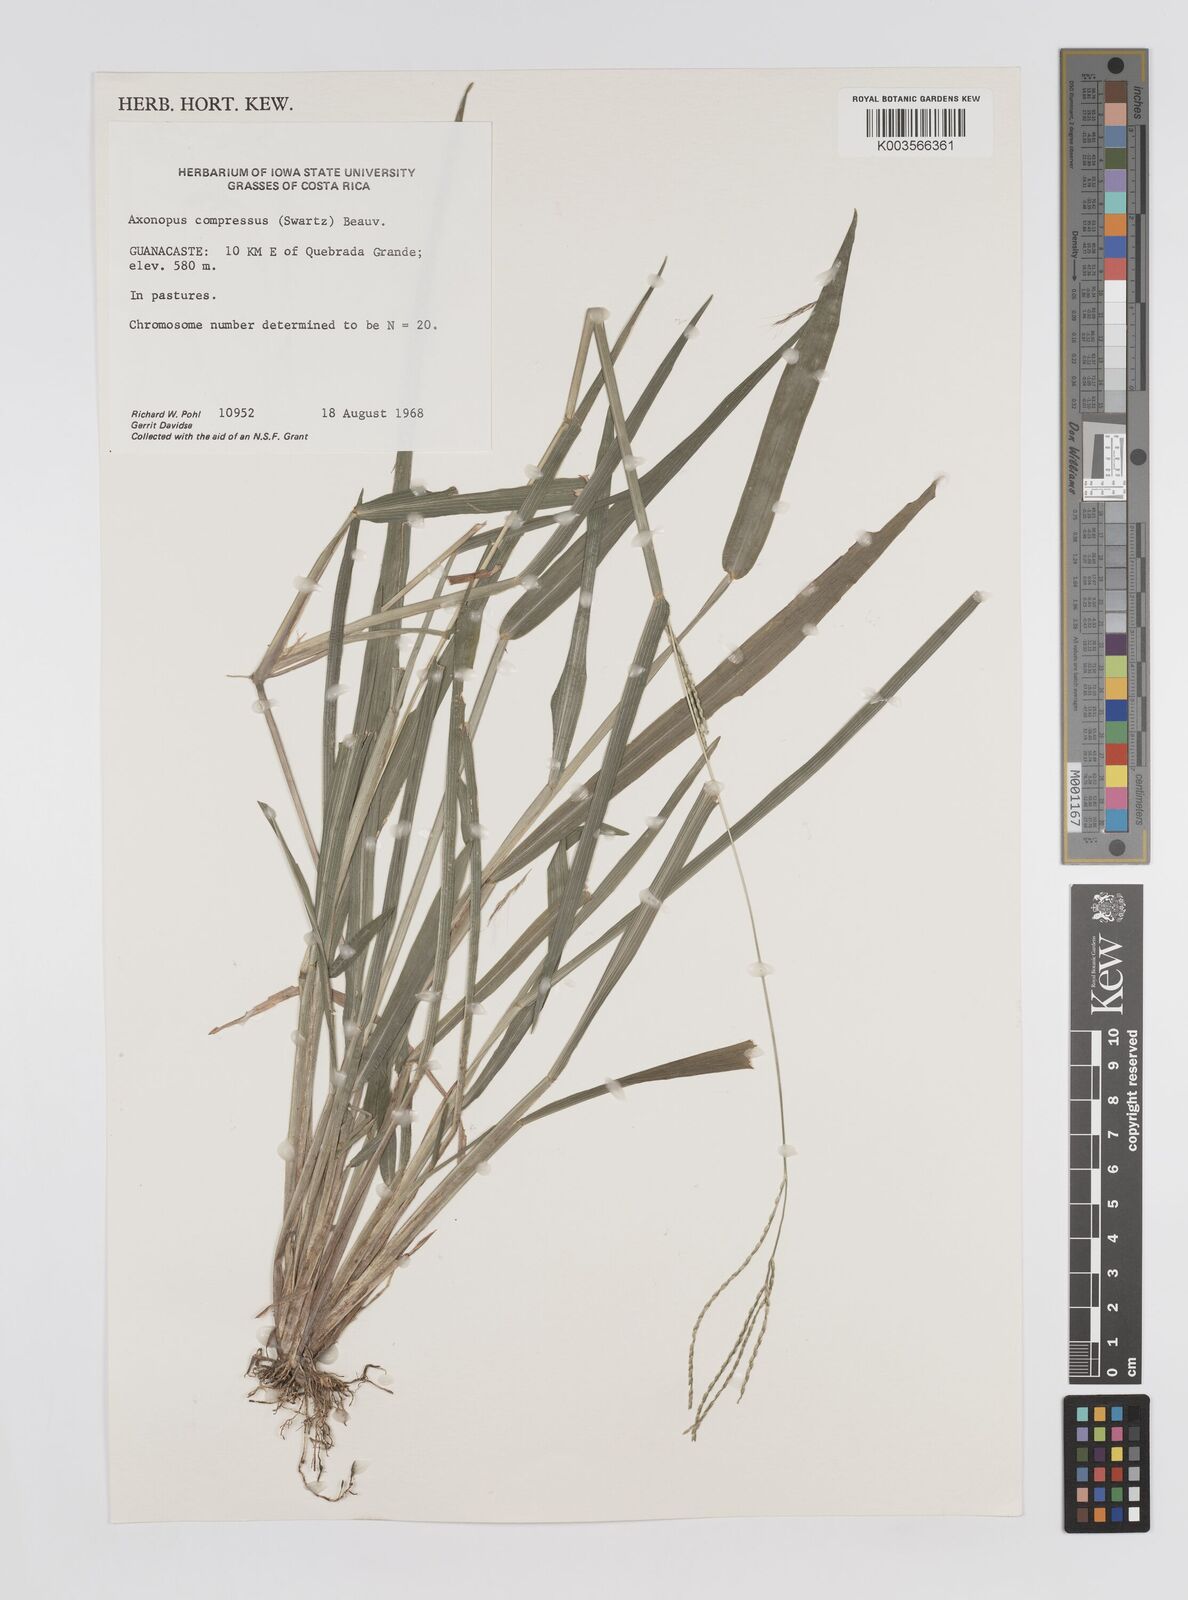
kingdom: Plantae
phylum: Tracheophyta
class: Liliopsida
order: Poales
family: Poaceae
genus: Axonopus
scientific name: Axonopus compressus
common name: American carpet grass
